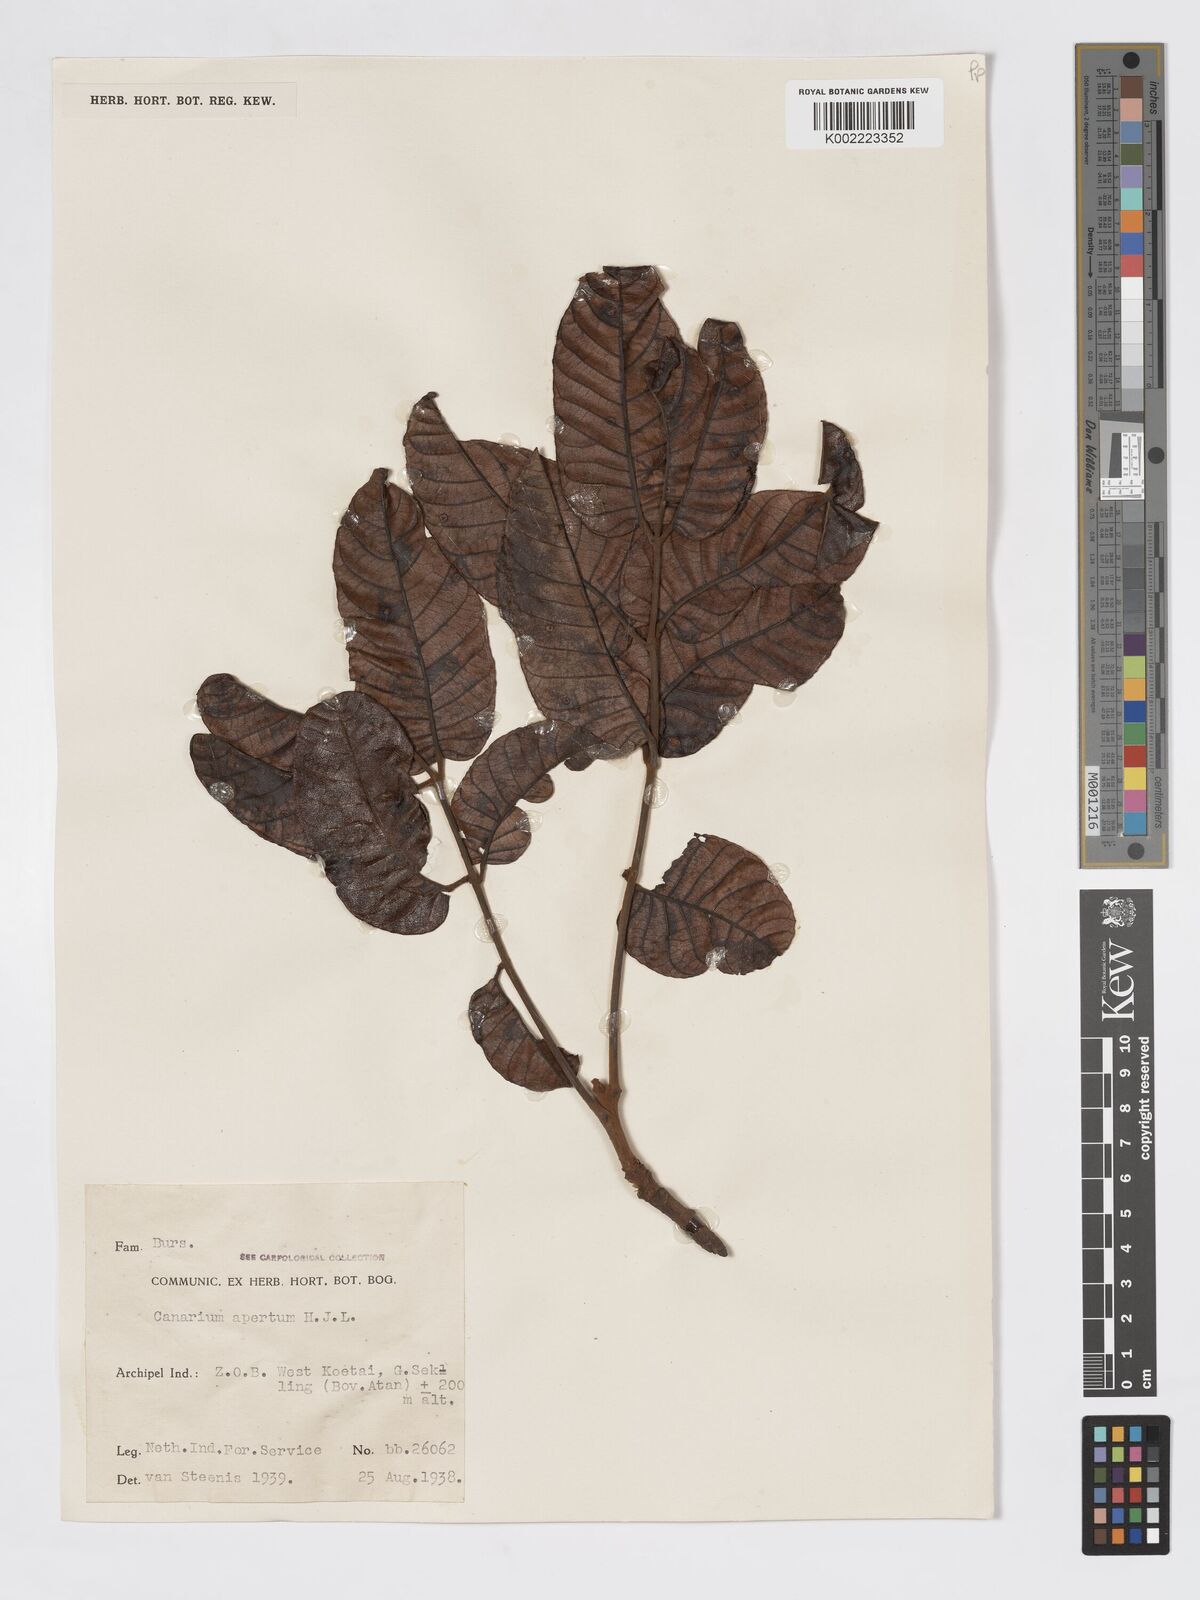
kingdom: Plantae
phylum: Tracheophyta
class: Magnoliopsida
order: Sapindales
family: Burseraceae
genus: Canarium
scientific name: Canarium apertum
